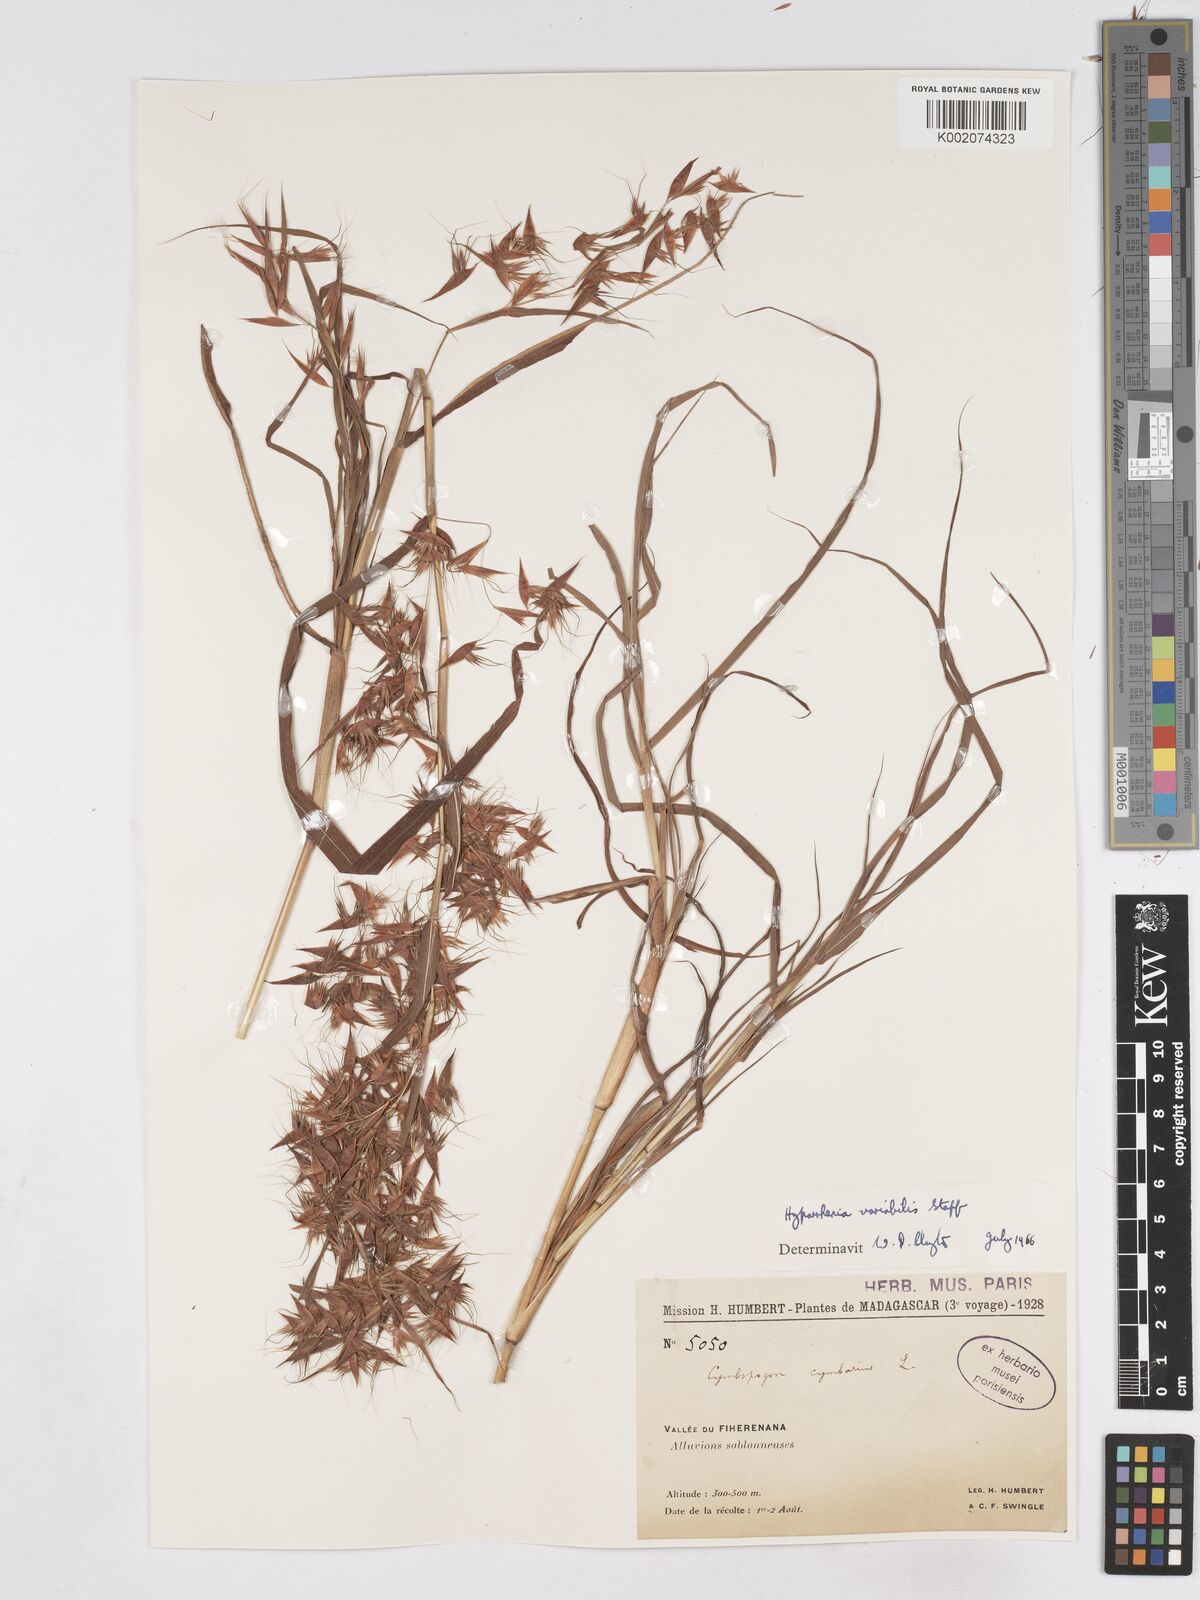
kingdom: Plantae
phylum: Tracheophyta
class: Liliopsida
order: Poales
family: Poaceae
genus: Hyparrhenia
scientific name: Hyparrhenia variabilis
